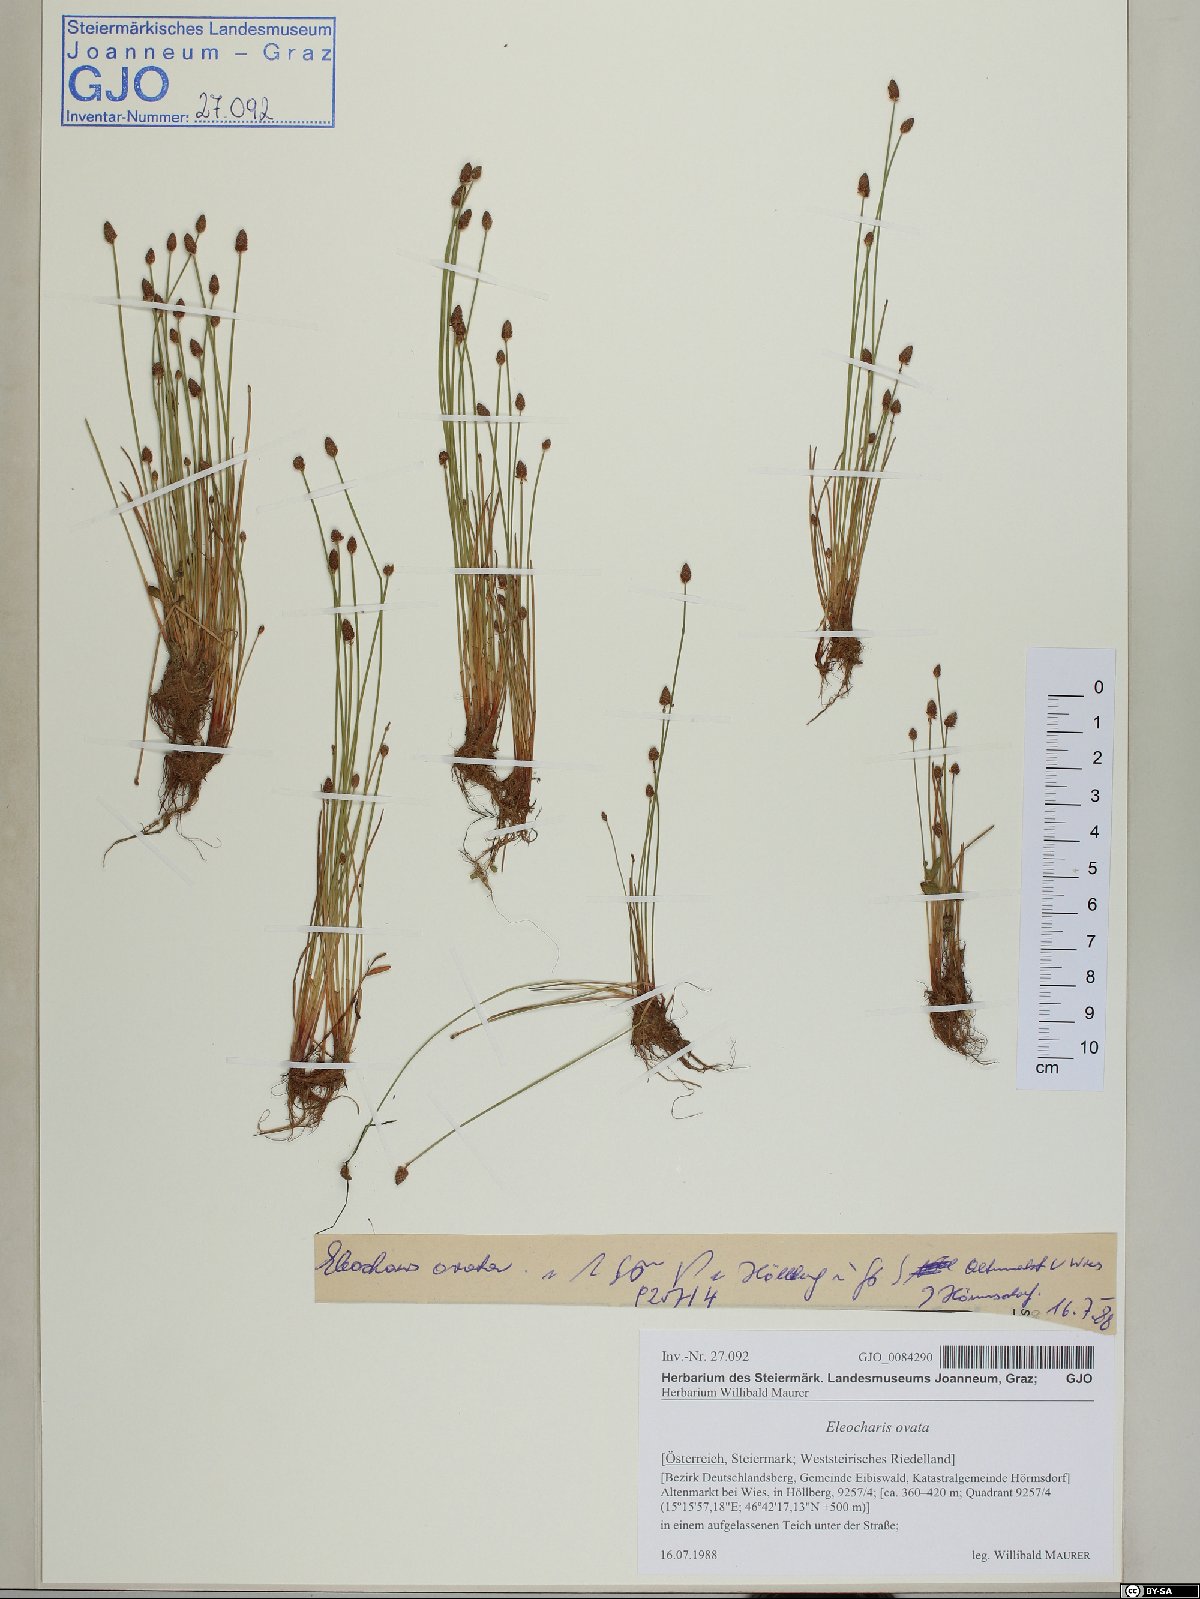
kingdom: Plantae
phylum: Tracheophyta
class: Liliopsida
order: Poales
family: Cyperaceae
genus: Eleocharis
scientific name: Eleocharis ovata
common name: Oval spike-rush
